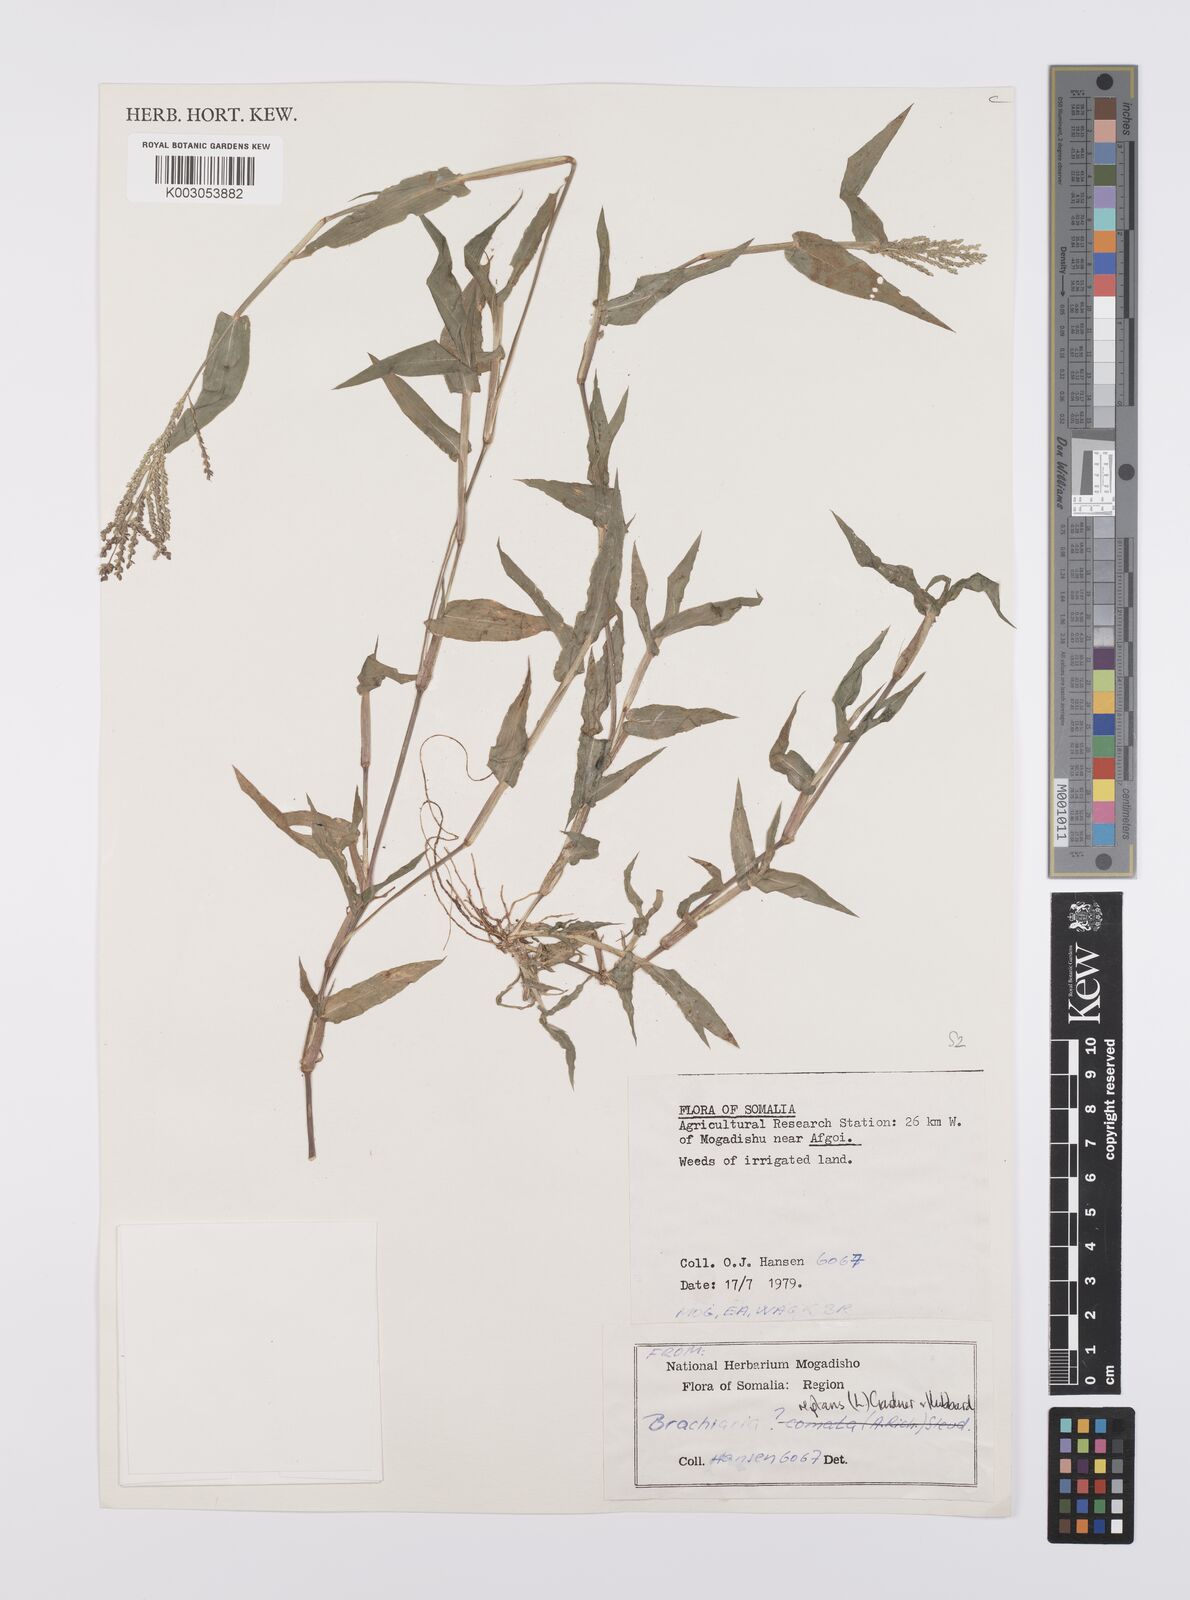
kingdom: Plantae
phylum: Tracheophyta
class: Liliopsida
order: Poales
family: Poaceae
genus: Urochloa
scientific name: Urochloa reptans
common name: Sprawling signalgrass
